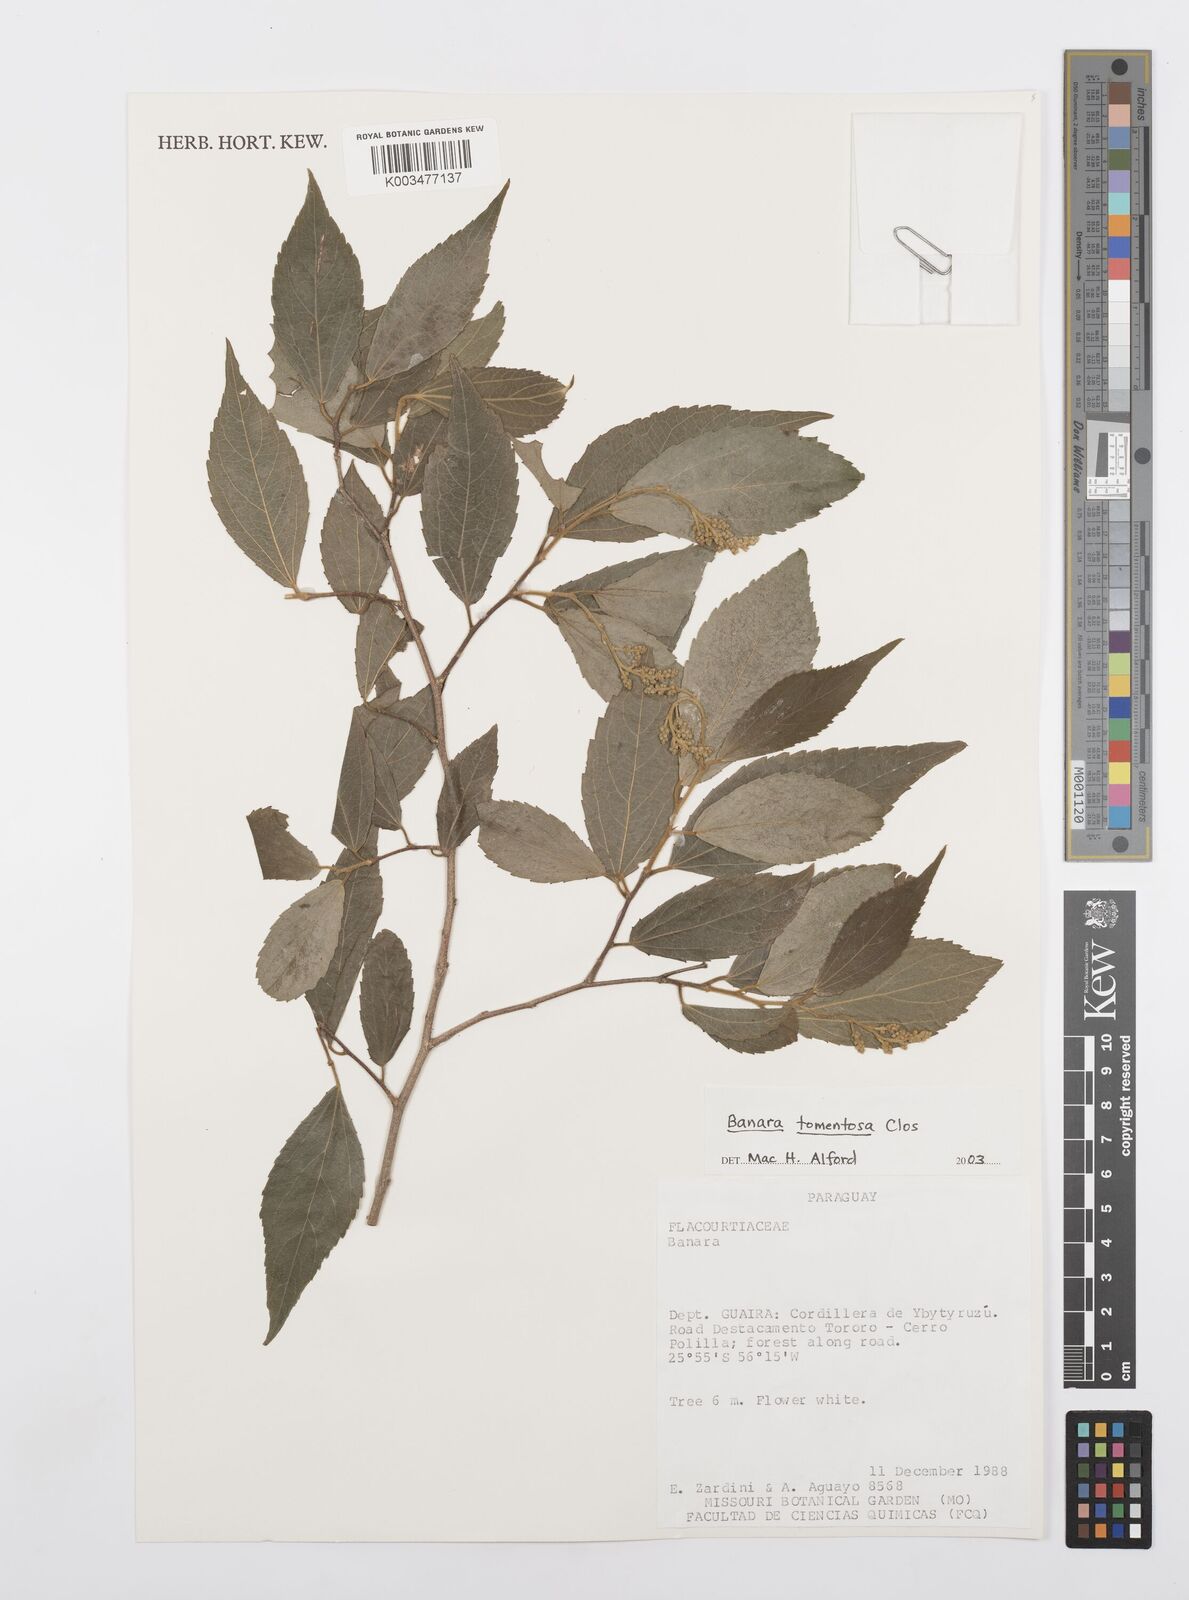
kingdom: Plantae
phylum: Tracheophyta
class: Magnoliopsida
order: Malpighiales
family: Salicaceae
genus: Banara
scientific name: Banara tomentosa
